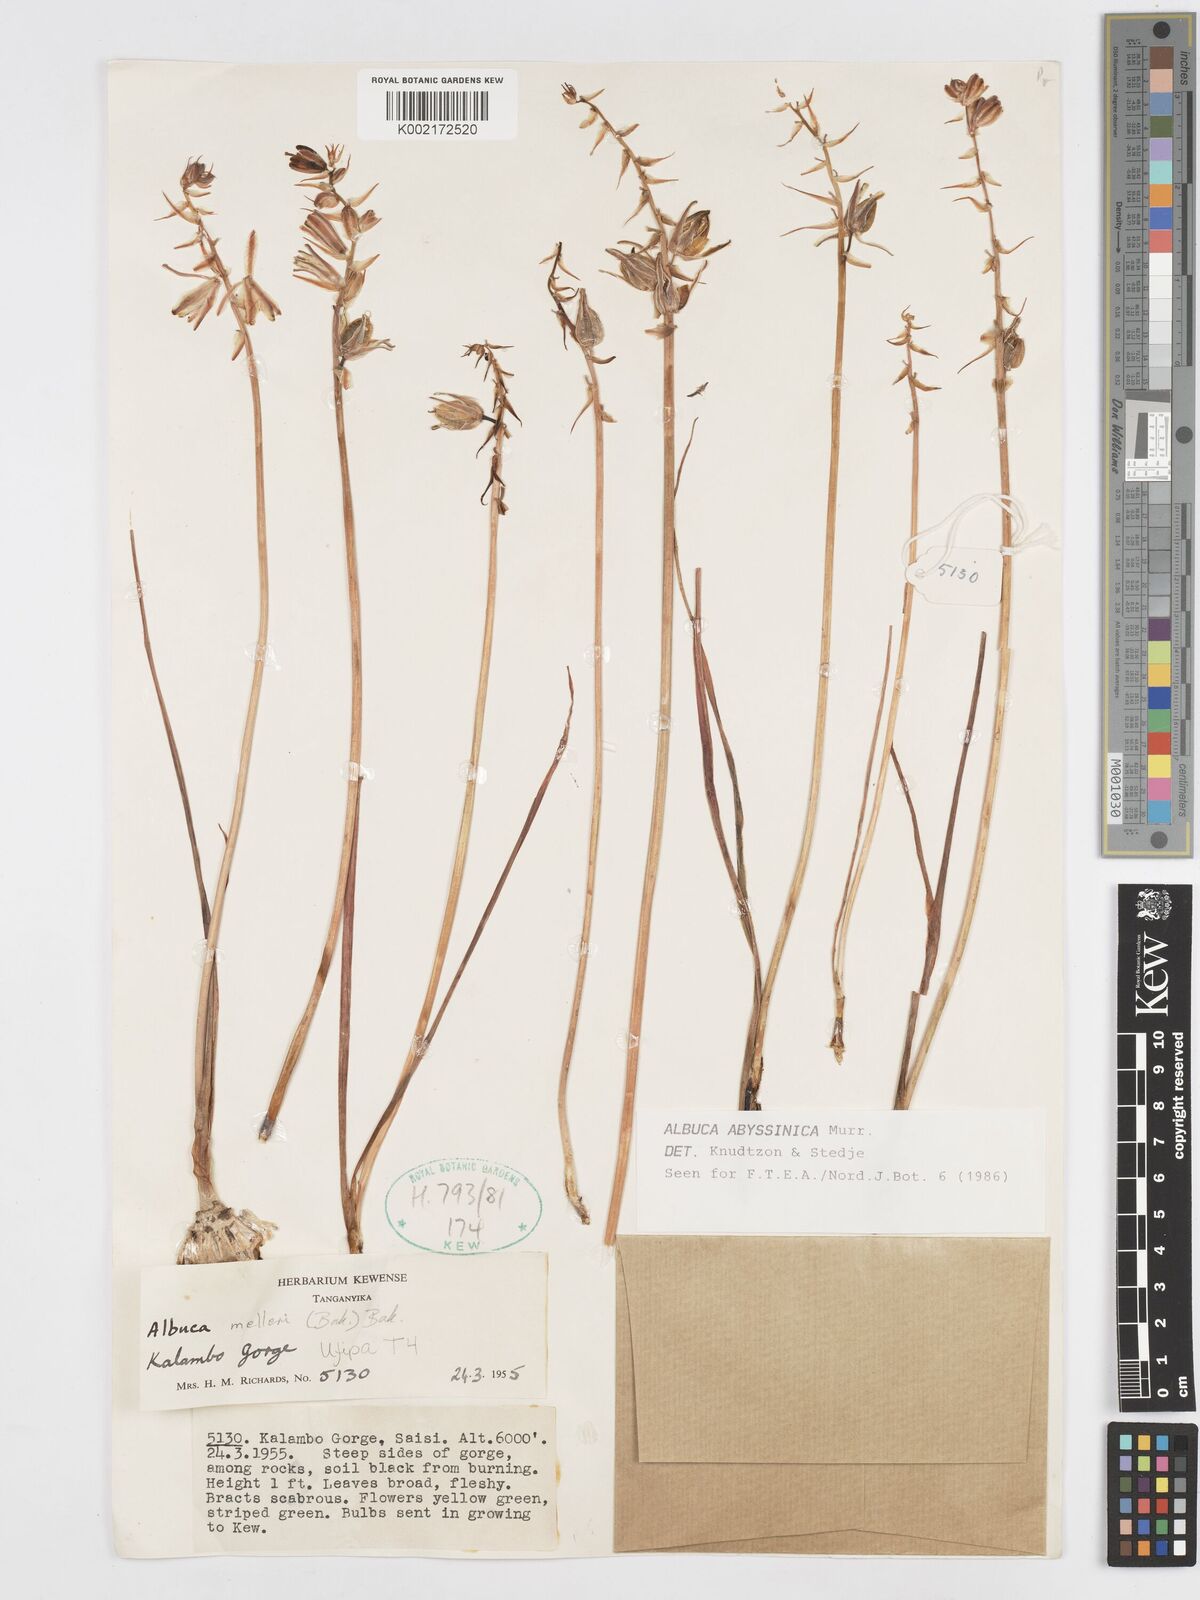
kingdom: Plantae
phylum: Tracheophyta
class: Liliopsida
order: Asparagales
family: Asparagaceae
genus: Albuca
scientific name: Albuca abyssinica
